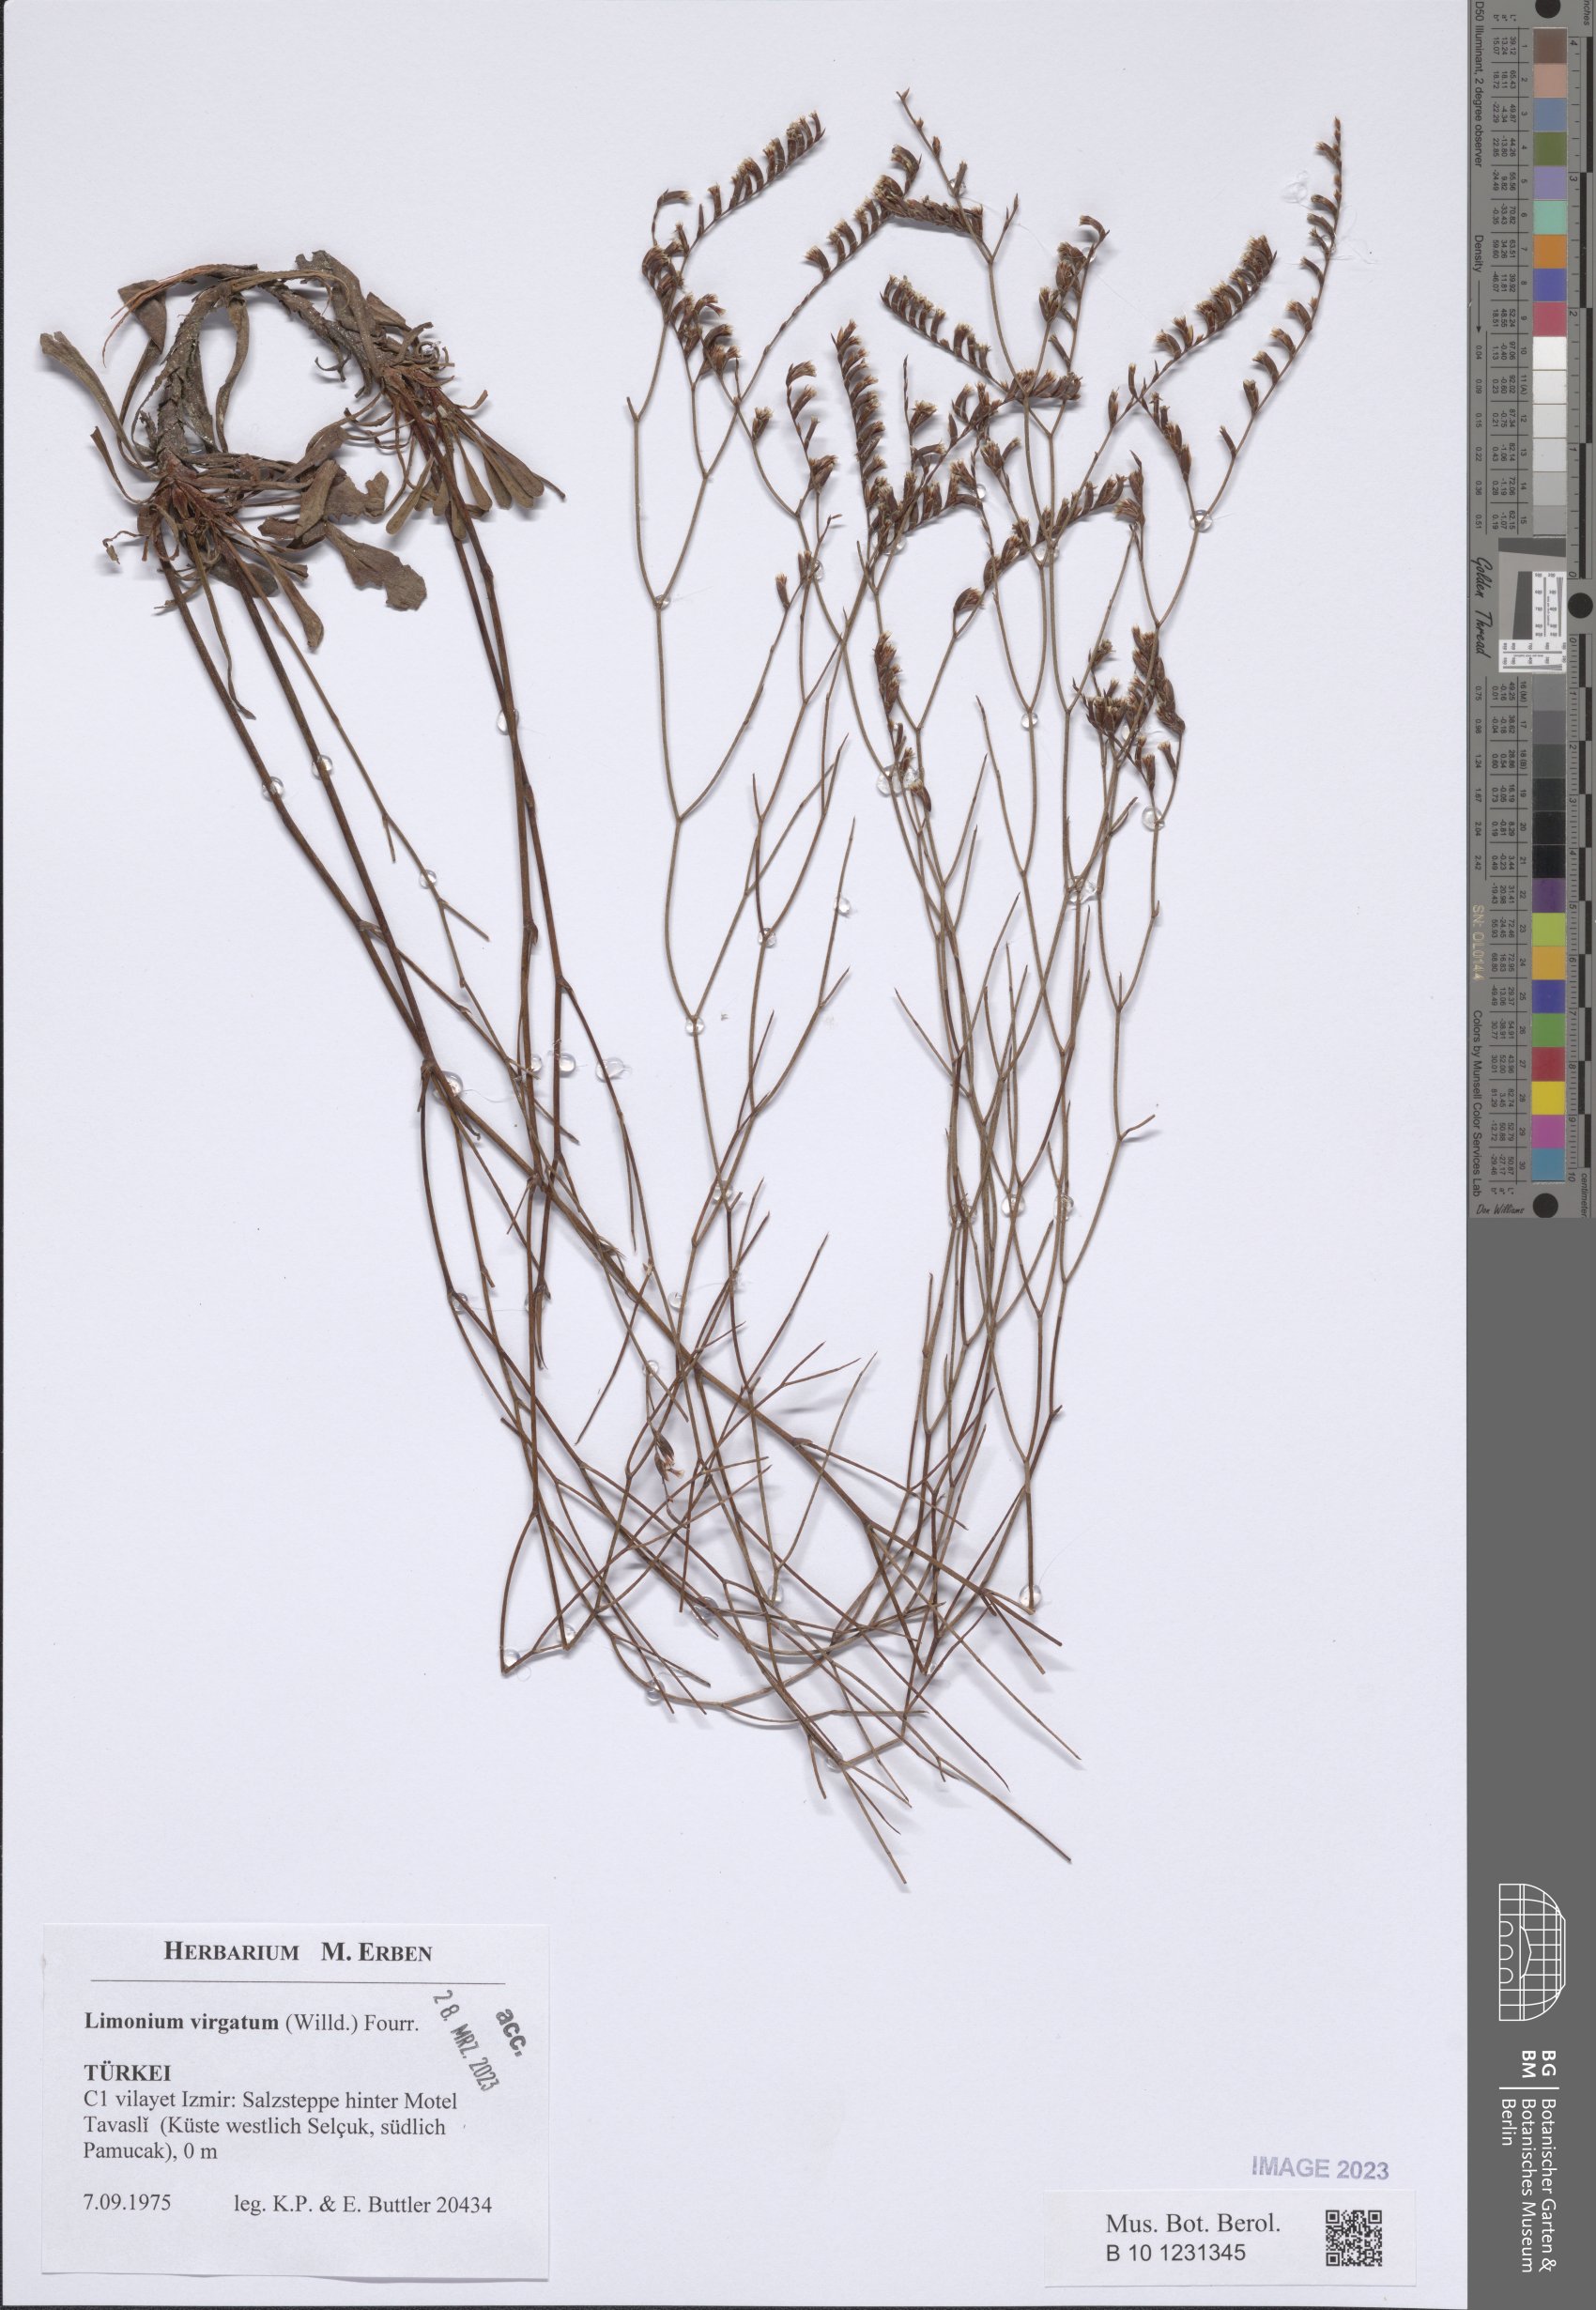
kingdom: Plantae
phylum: Tracheophyta
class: Magnoliopsida
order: Caryophyllales
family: Plumbaginaceae
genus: Limonium
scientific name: Limonium virgatum
